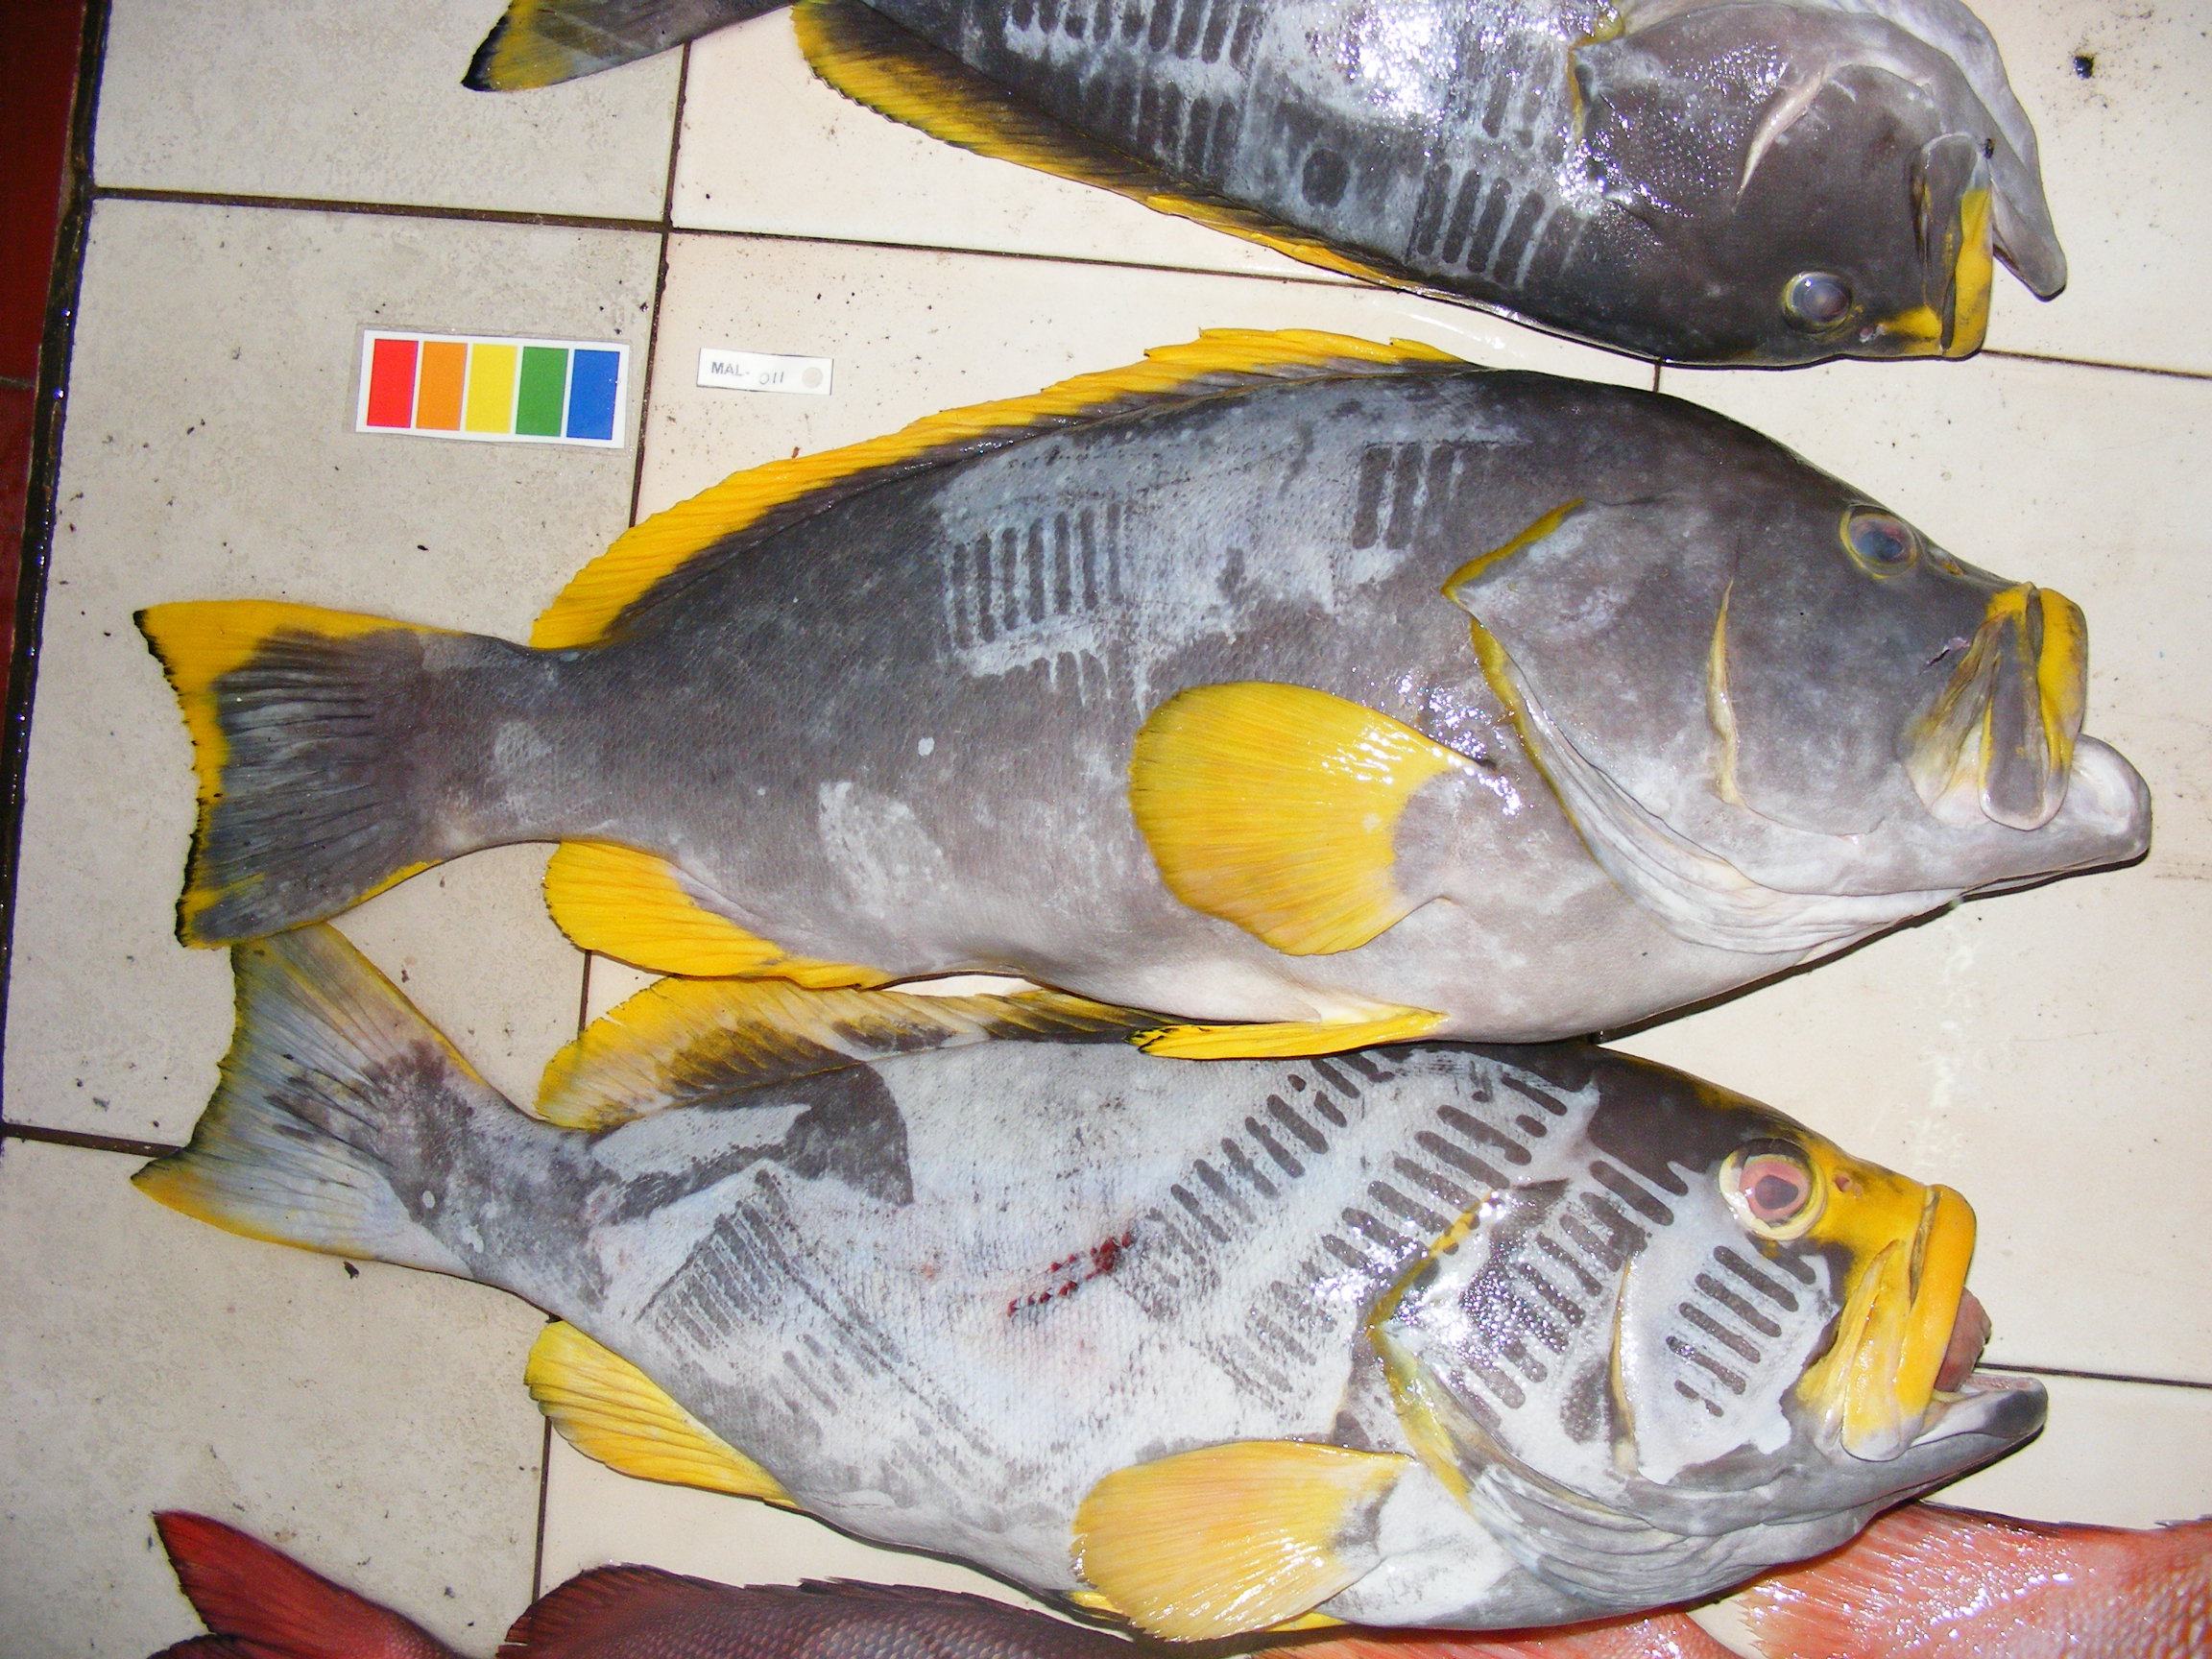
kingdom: Animalia
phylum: Chordata
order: Perciformes
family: Serranidae
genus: Epinephelus
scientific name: Epinephelus flavocaeruleus
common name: Blue and yellow grouper
